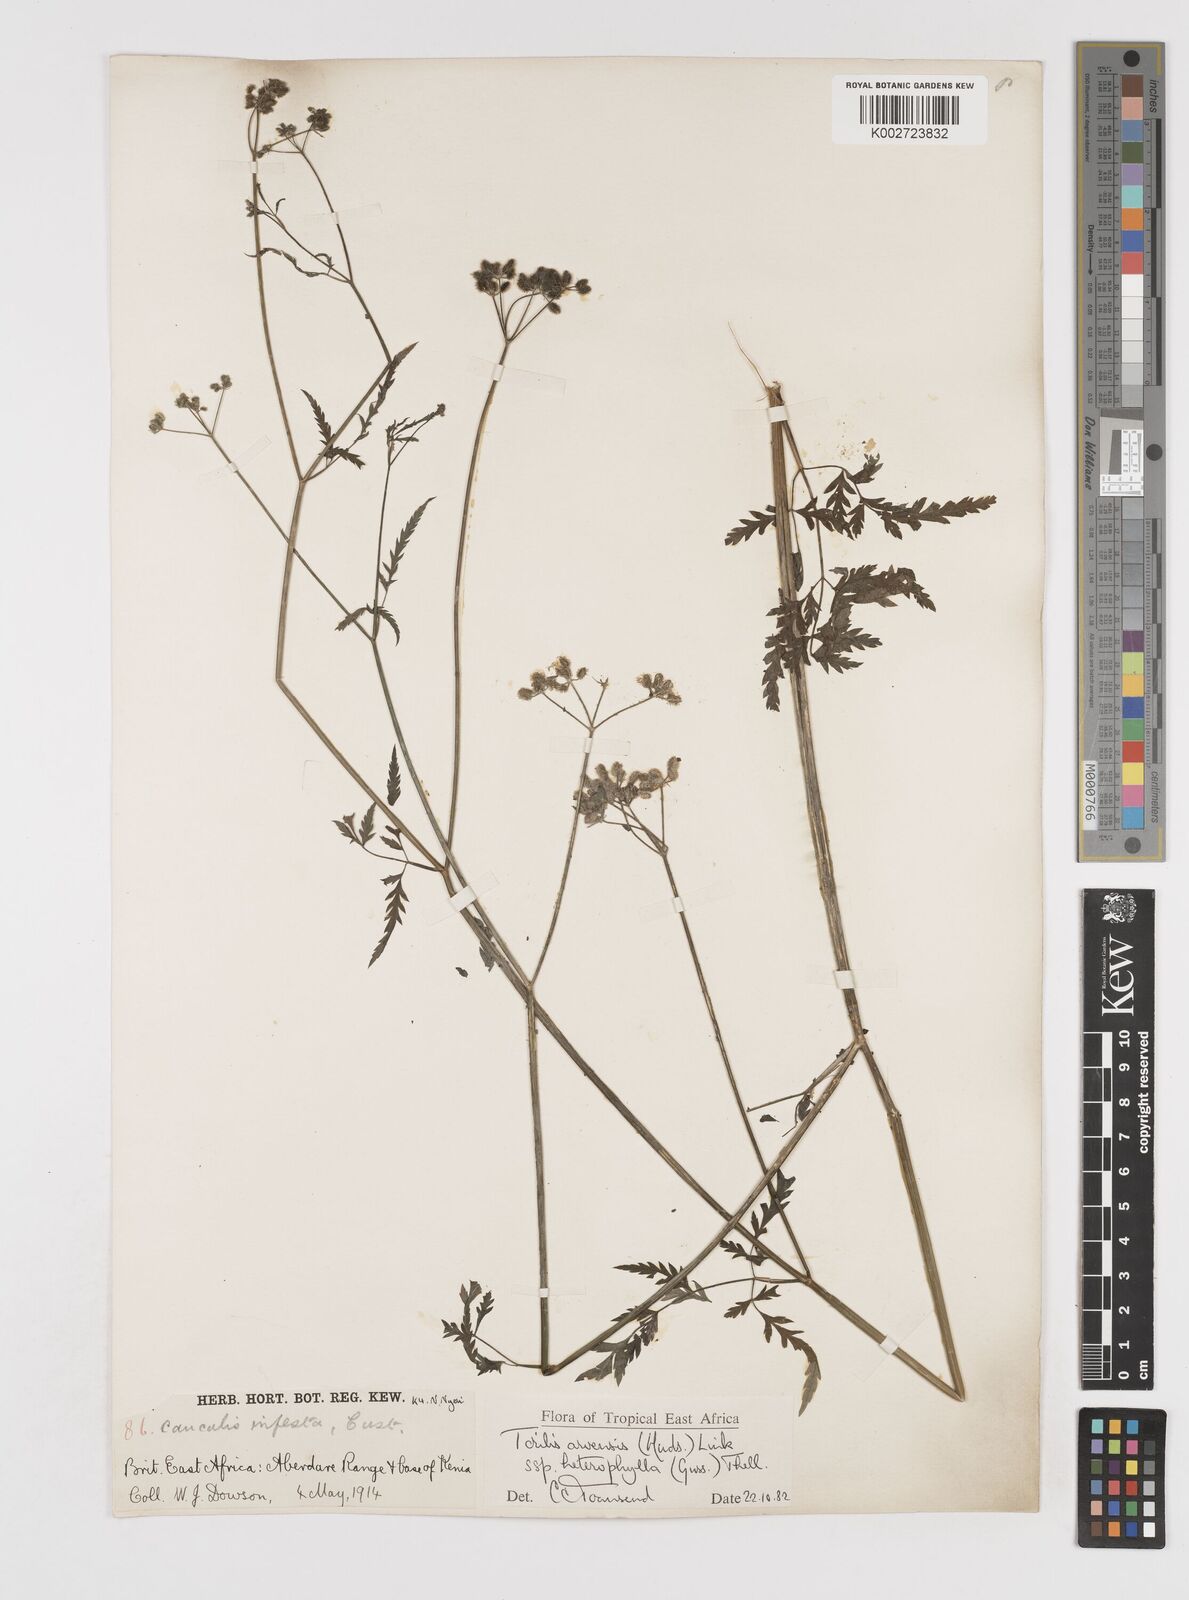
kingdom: Plantae
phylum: Tracheophyta
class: Magnoliopsida
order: Apiales
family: Apiaceae
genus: Torilis
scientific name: Torilis arvensis
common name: Spreading hedge-parsley
